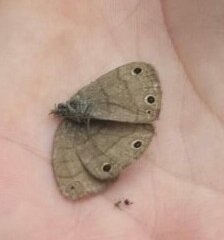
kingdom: Animalia
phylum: Arthropoda
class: Insecta
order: Lepidoptera
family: Nymphalidae
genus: Hermeuptychia
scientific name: Hermeuptychia hermes
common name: Carolina Satyr
